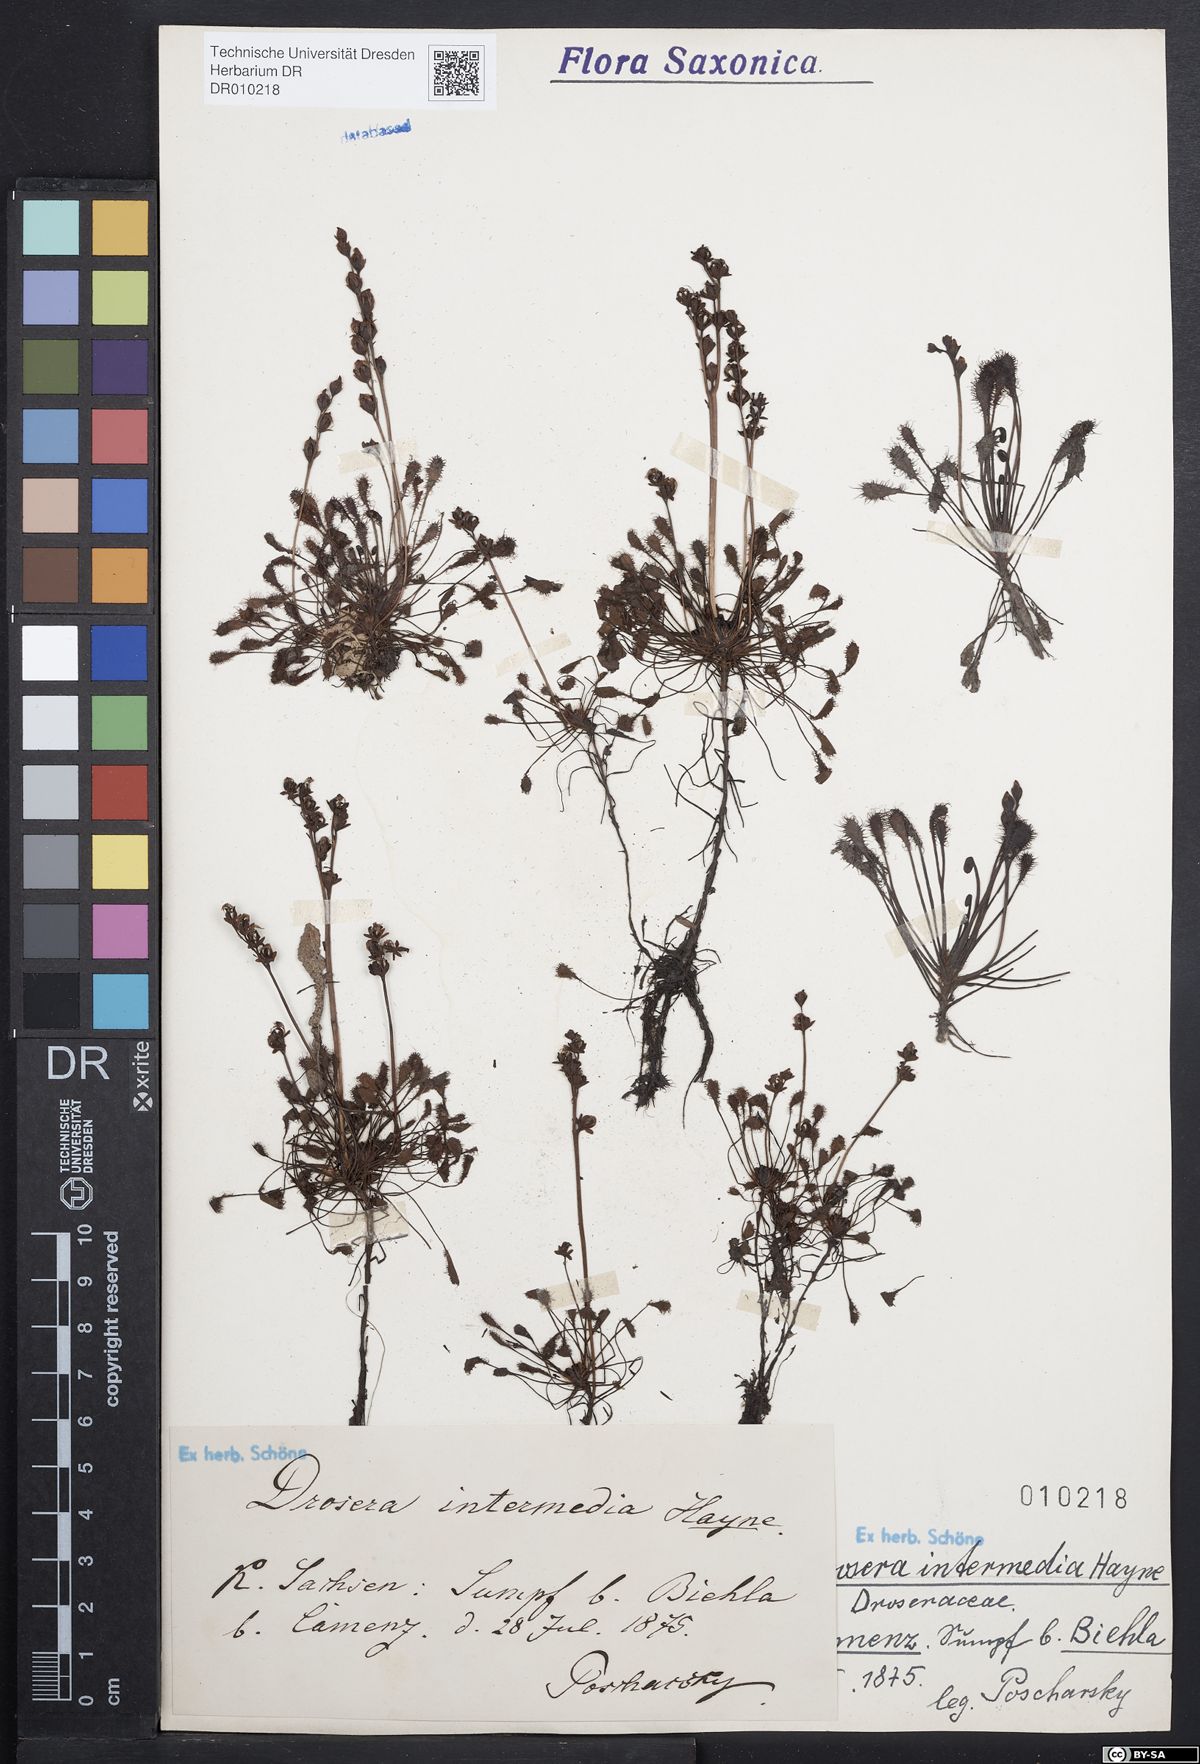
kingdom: Plantae
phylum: Tracheophyta
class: Magnoliopsida
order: Caryophyllales
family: Droseraceae
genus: Drosera
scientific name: Drosera intermedia
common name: Oblong-leaved sundew
